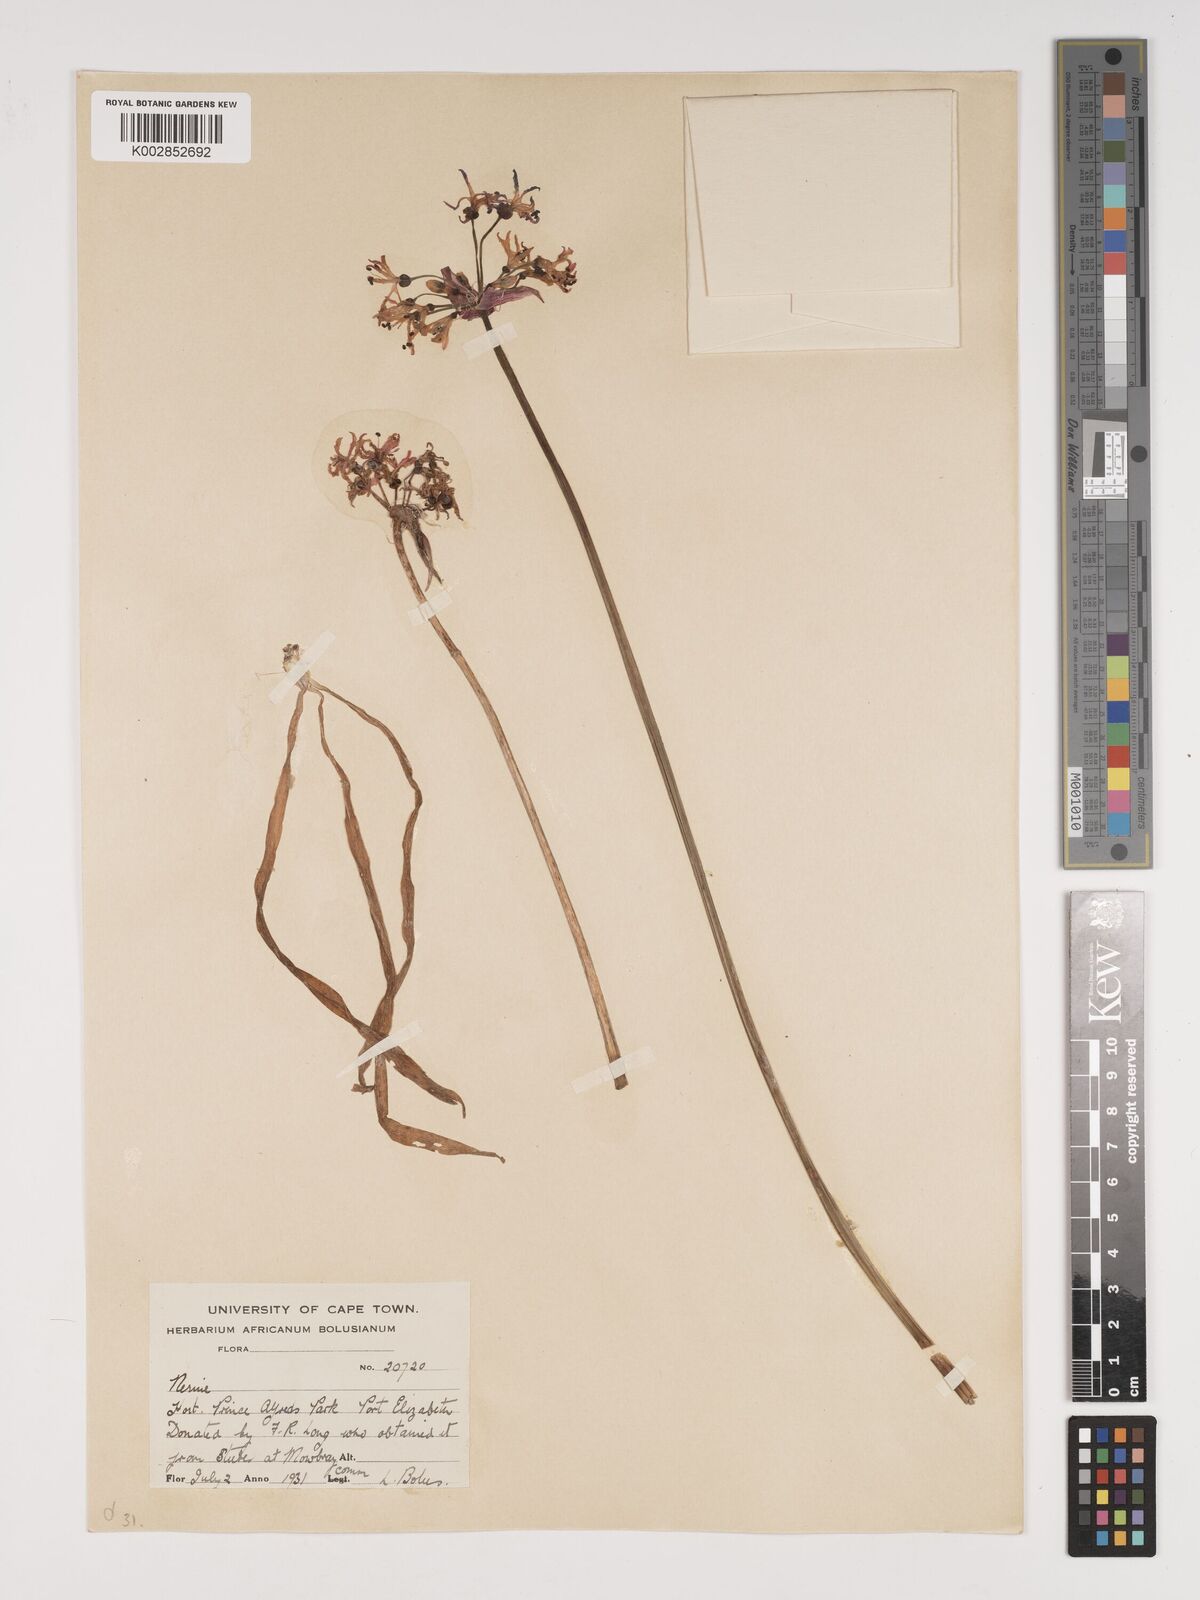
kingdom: Plantae
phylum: Tracheophyta
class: Liliopsida
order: Asparagales
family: Amaryllidaceae
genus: Nerine
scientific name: Nerine undulata
